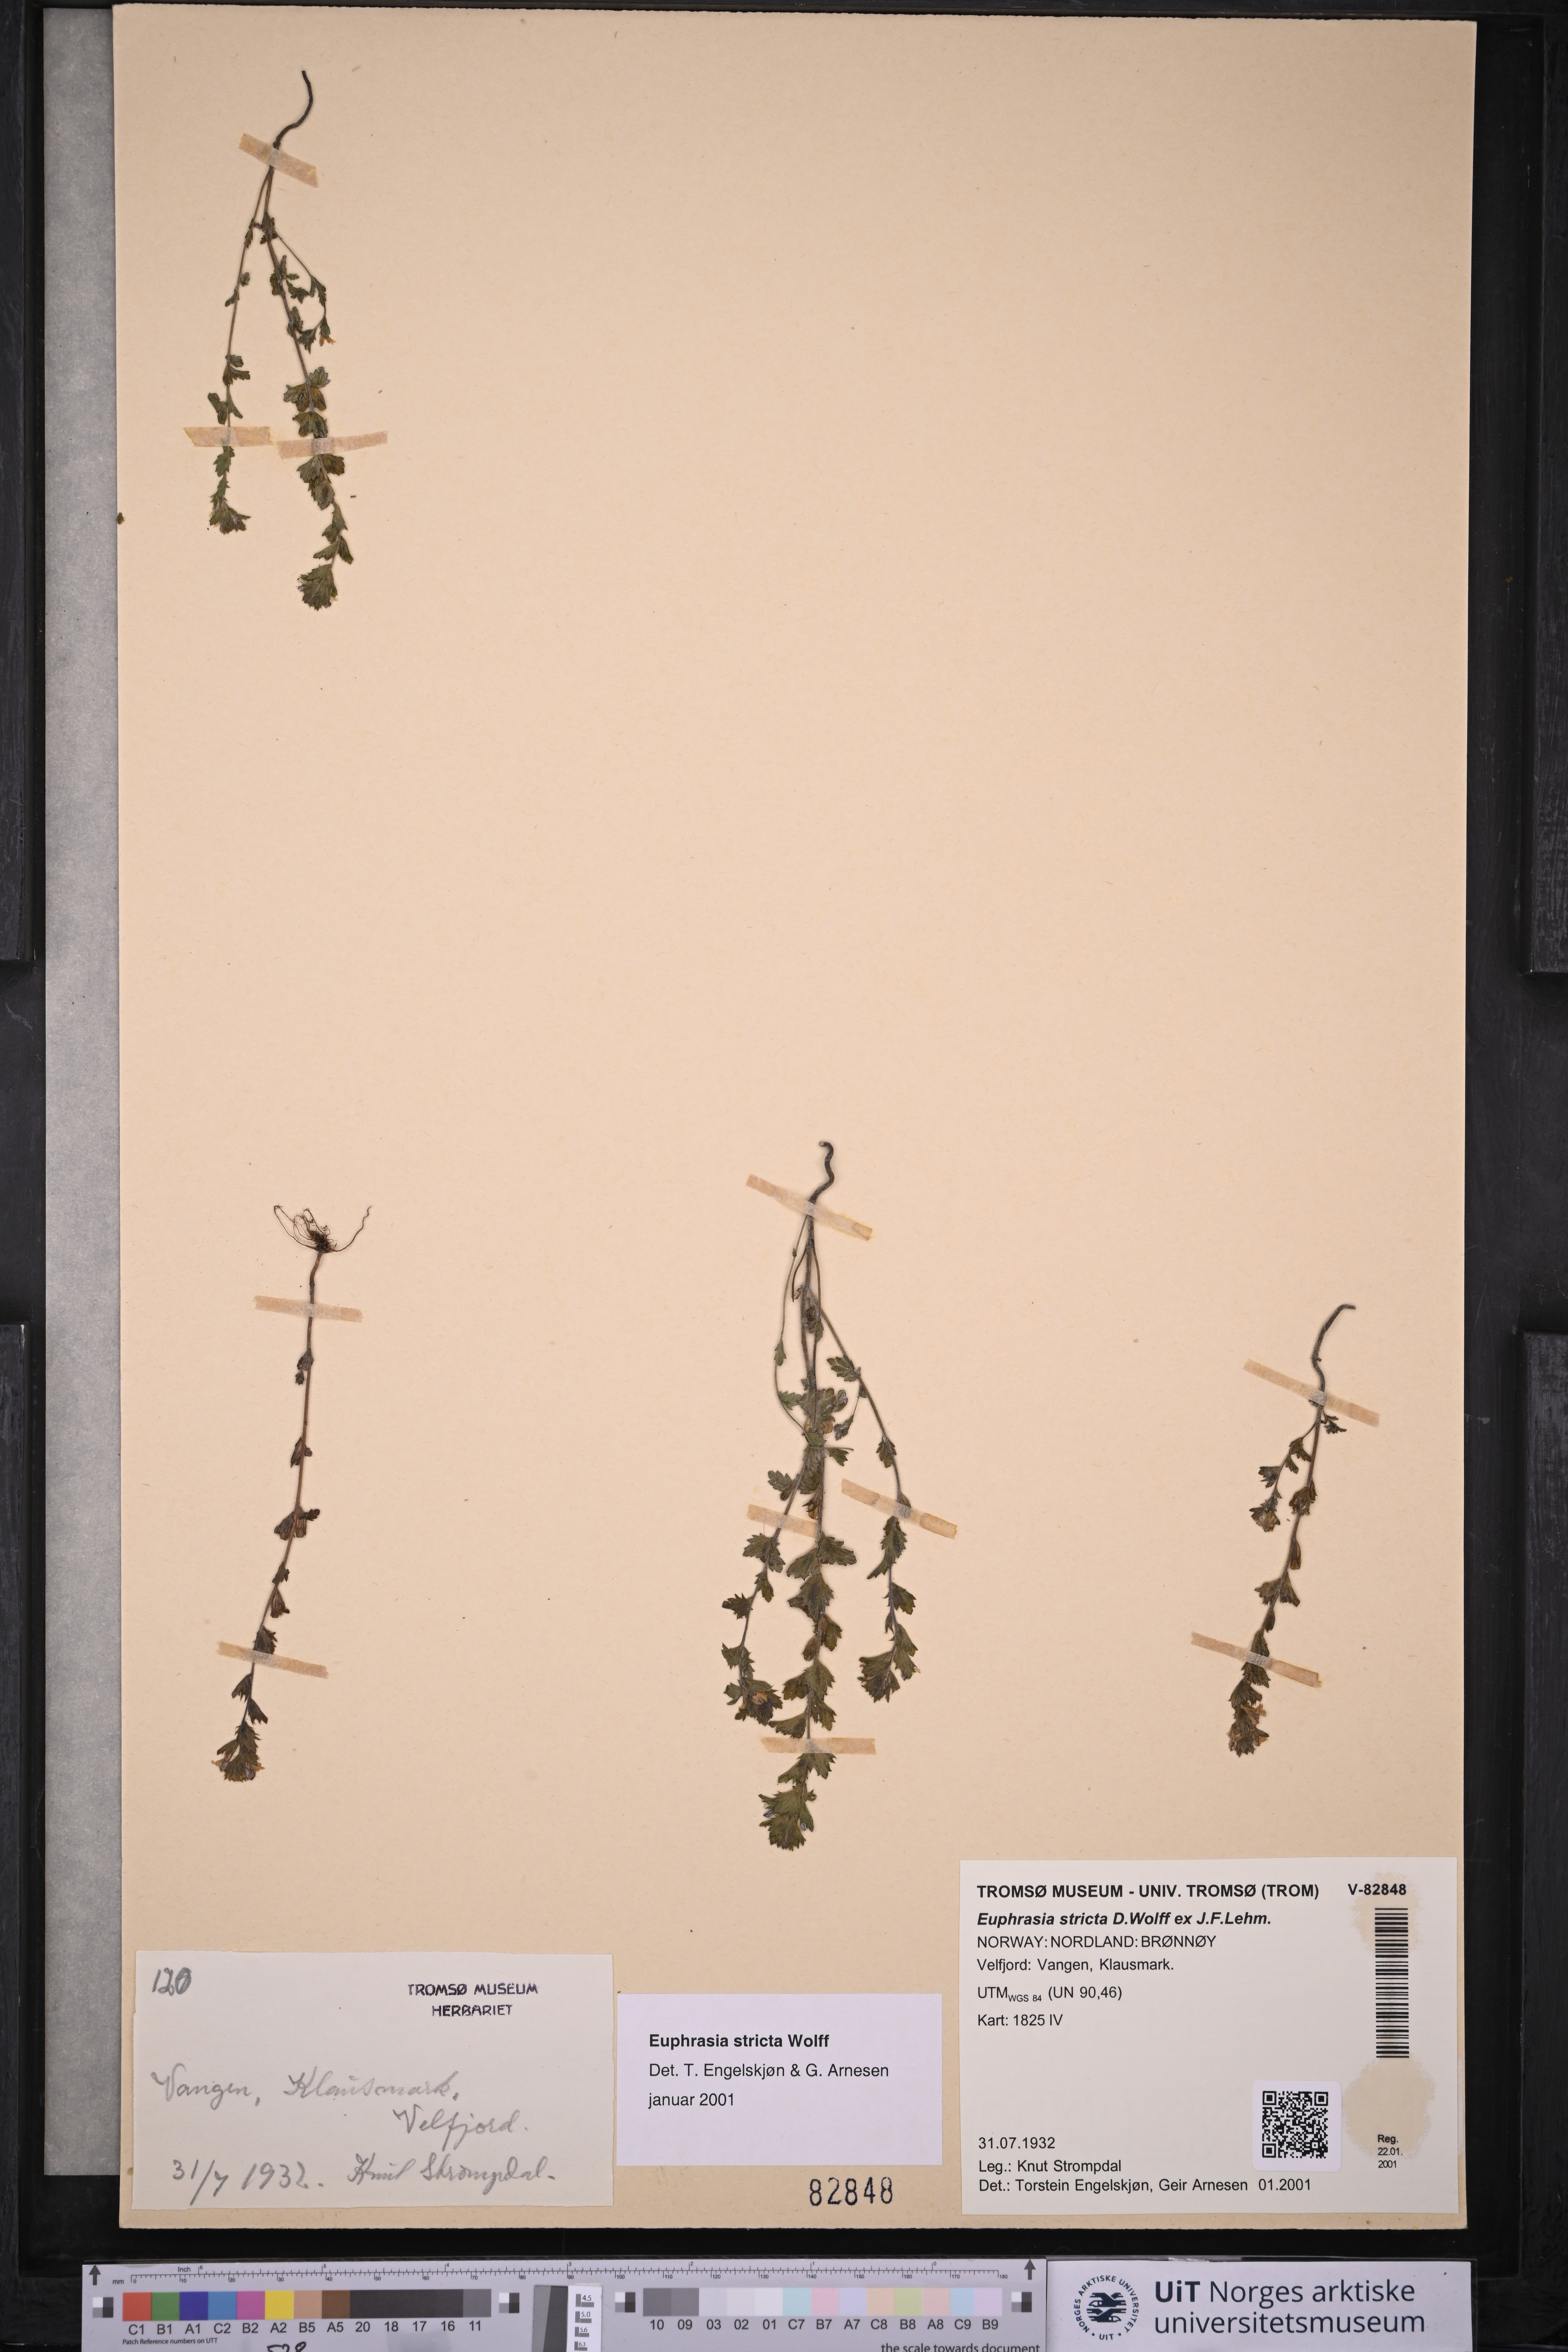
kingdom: Plantae
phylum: Tracheophyta
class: Magnoliopsida
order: Lamiales
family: Orobanchaceae
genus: Euphrasia
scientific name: Euphrasia stricta
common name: Drug eyebright
